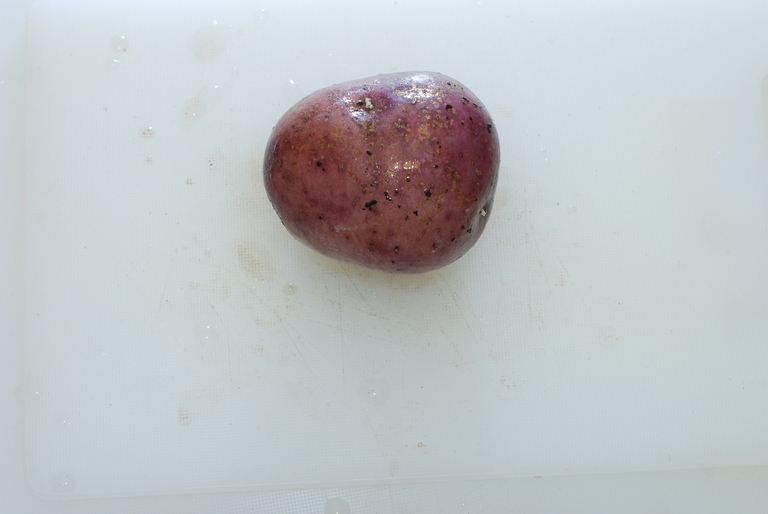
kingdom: Plantae
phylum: Tracheophyta
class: Magnoliopsida
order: Solanales
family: Solanaceae
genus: Solanum
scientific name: Solanum tuberosum
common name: Potato
